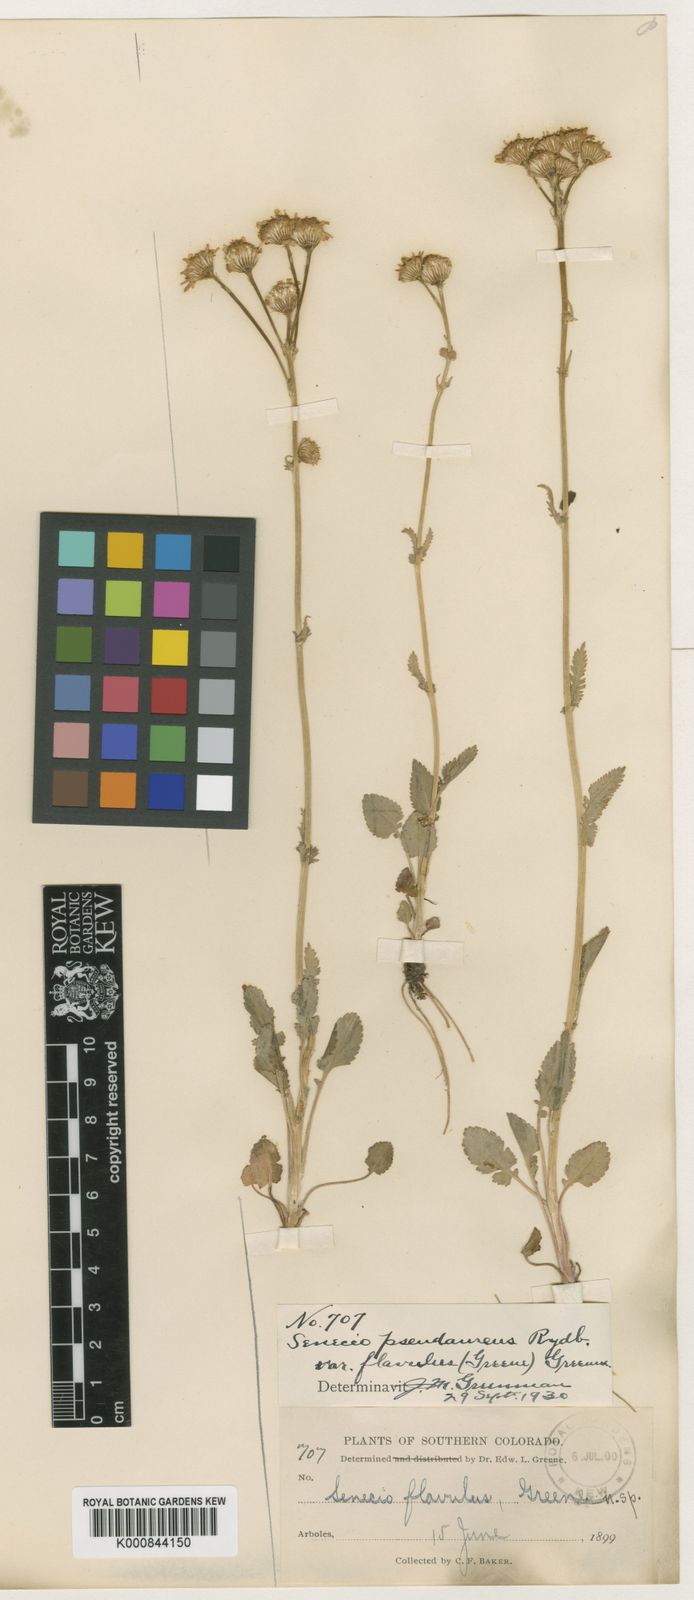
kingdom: Plantae
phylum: Tracheophyta
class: Magnoliopsida
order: Asterales
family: Asteraceae
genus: Packera
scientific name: Packera
